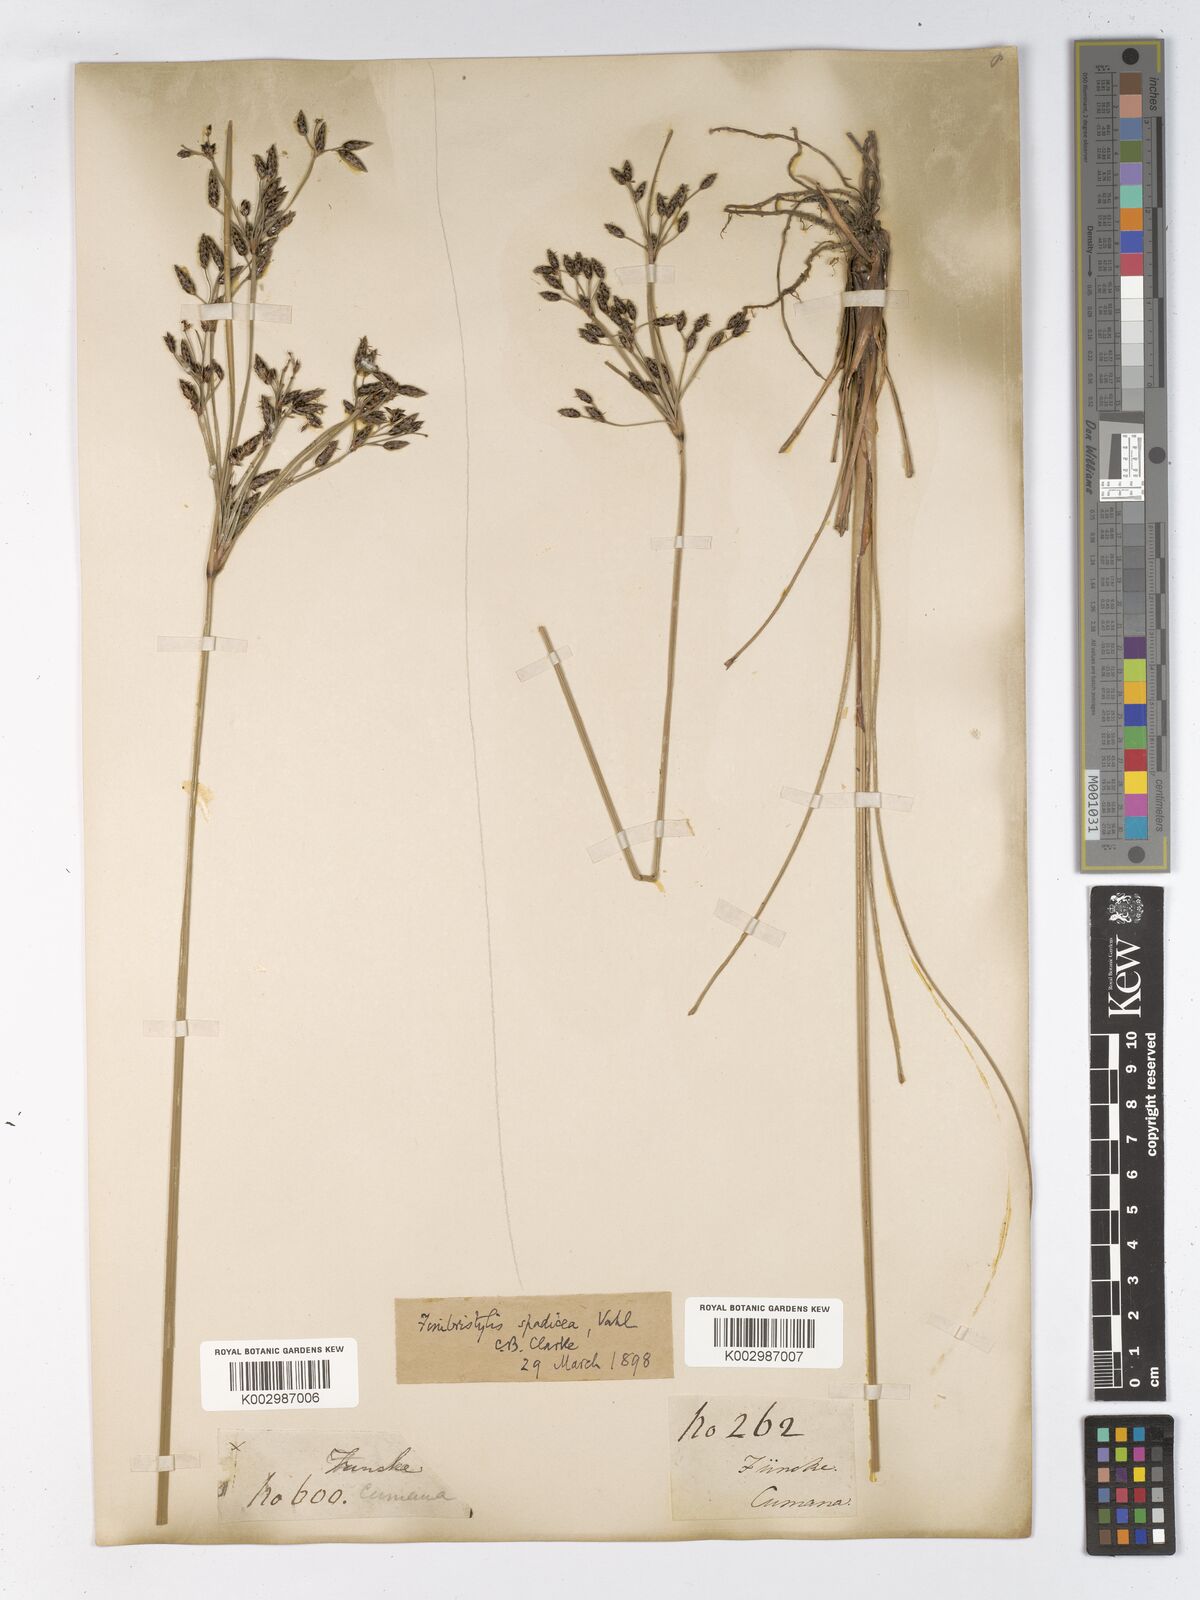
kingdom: Plantae
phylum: Tracheophyta
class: Liliopsida
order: Poales
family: Cyperaceae
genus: Fimbristylis
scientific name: Fimbristylis spadicea
